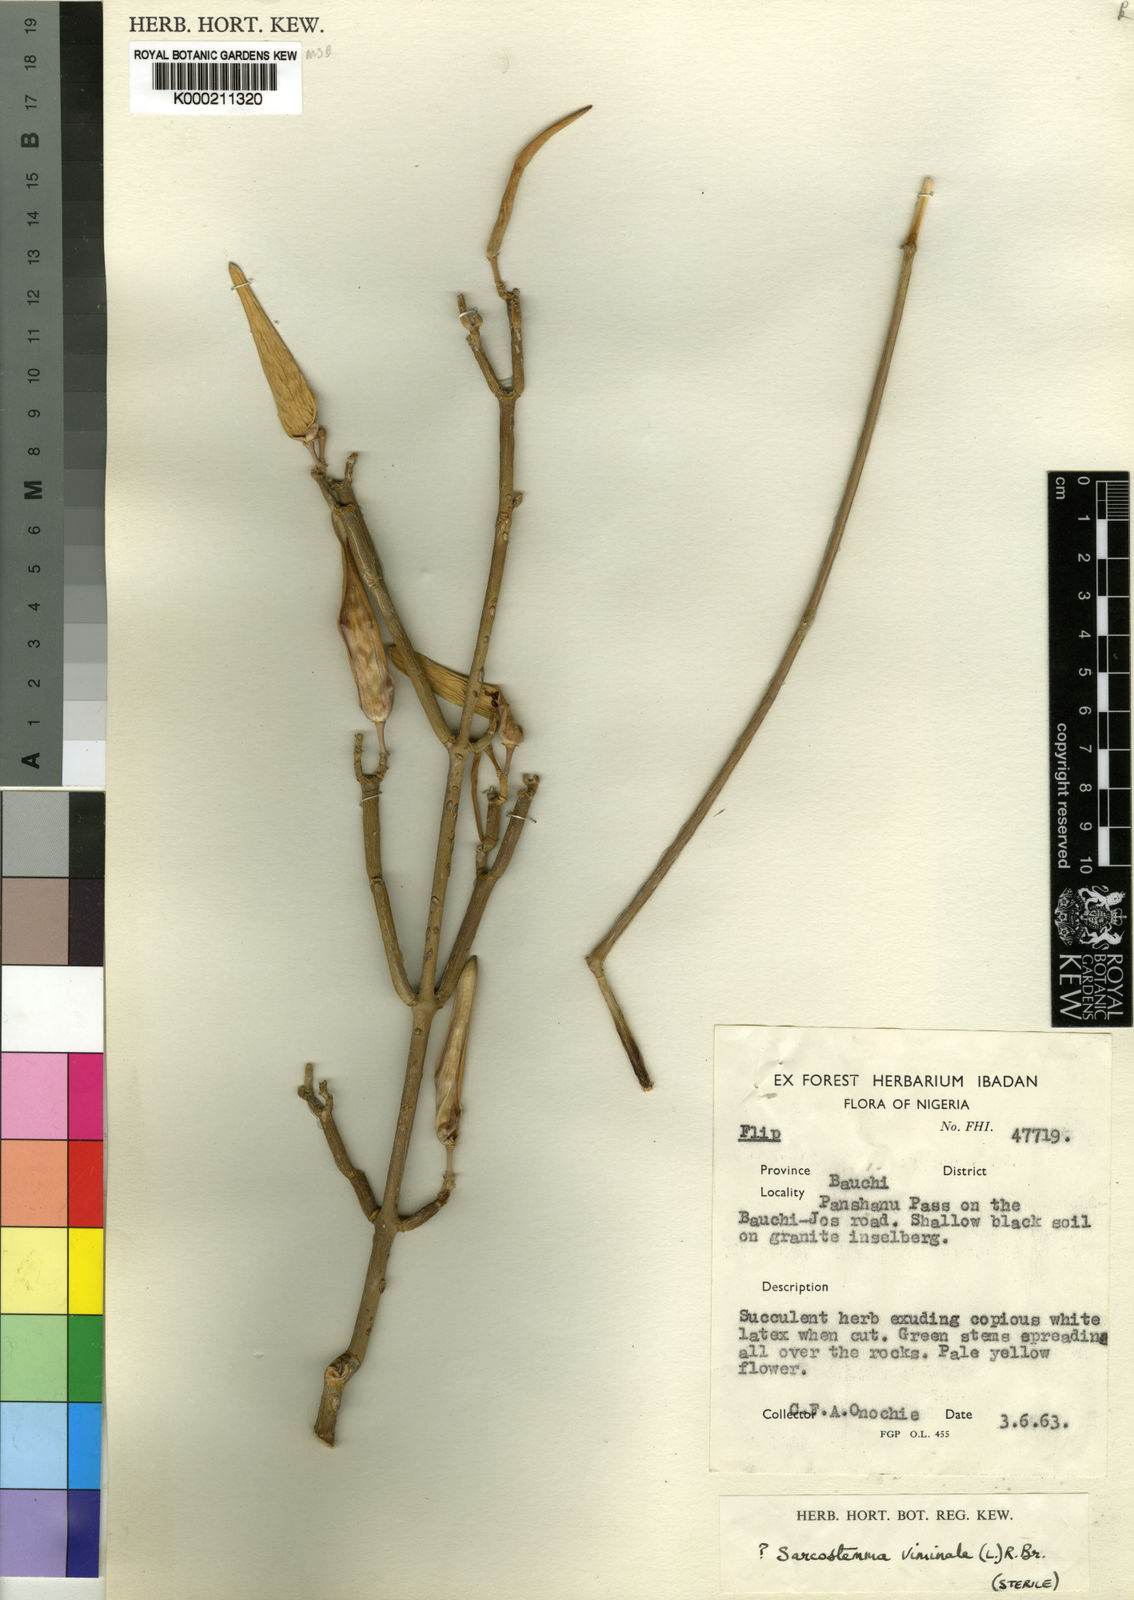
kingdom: Plantae
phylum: Tracheophyta
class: Magnoliopsida
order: Gentianales
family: Apocynaceae
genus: Cynanchum
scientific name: Cynanchum
